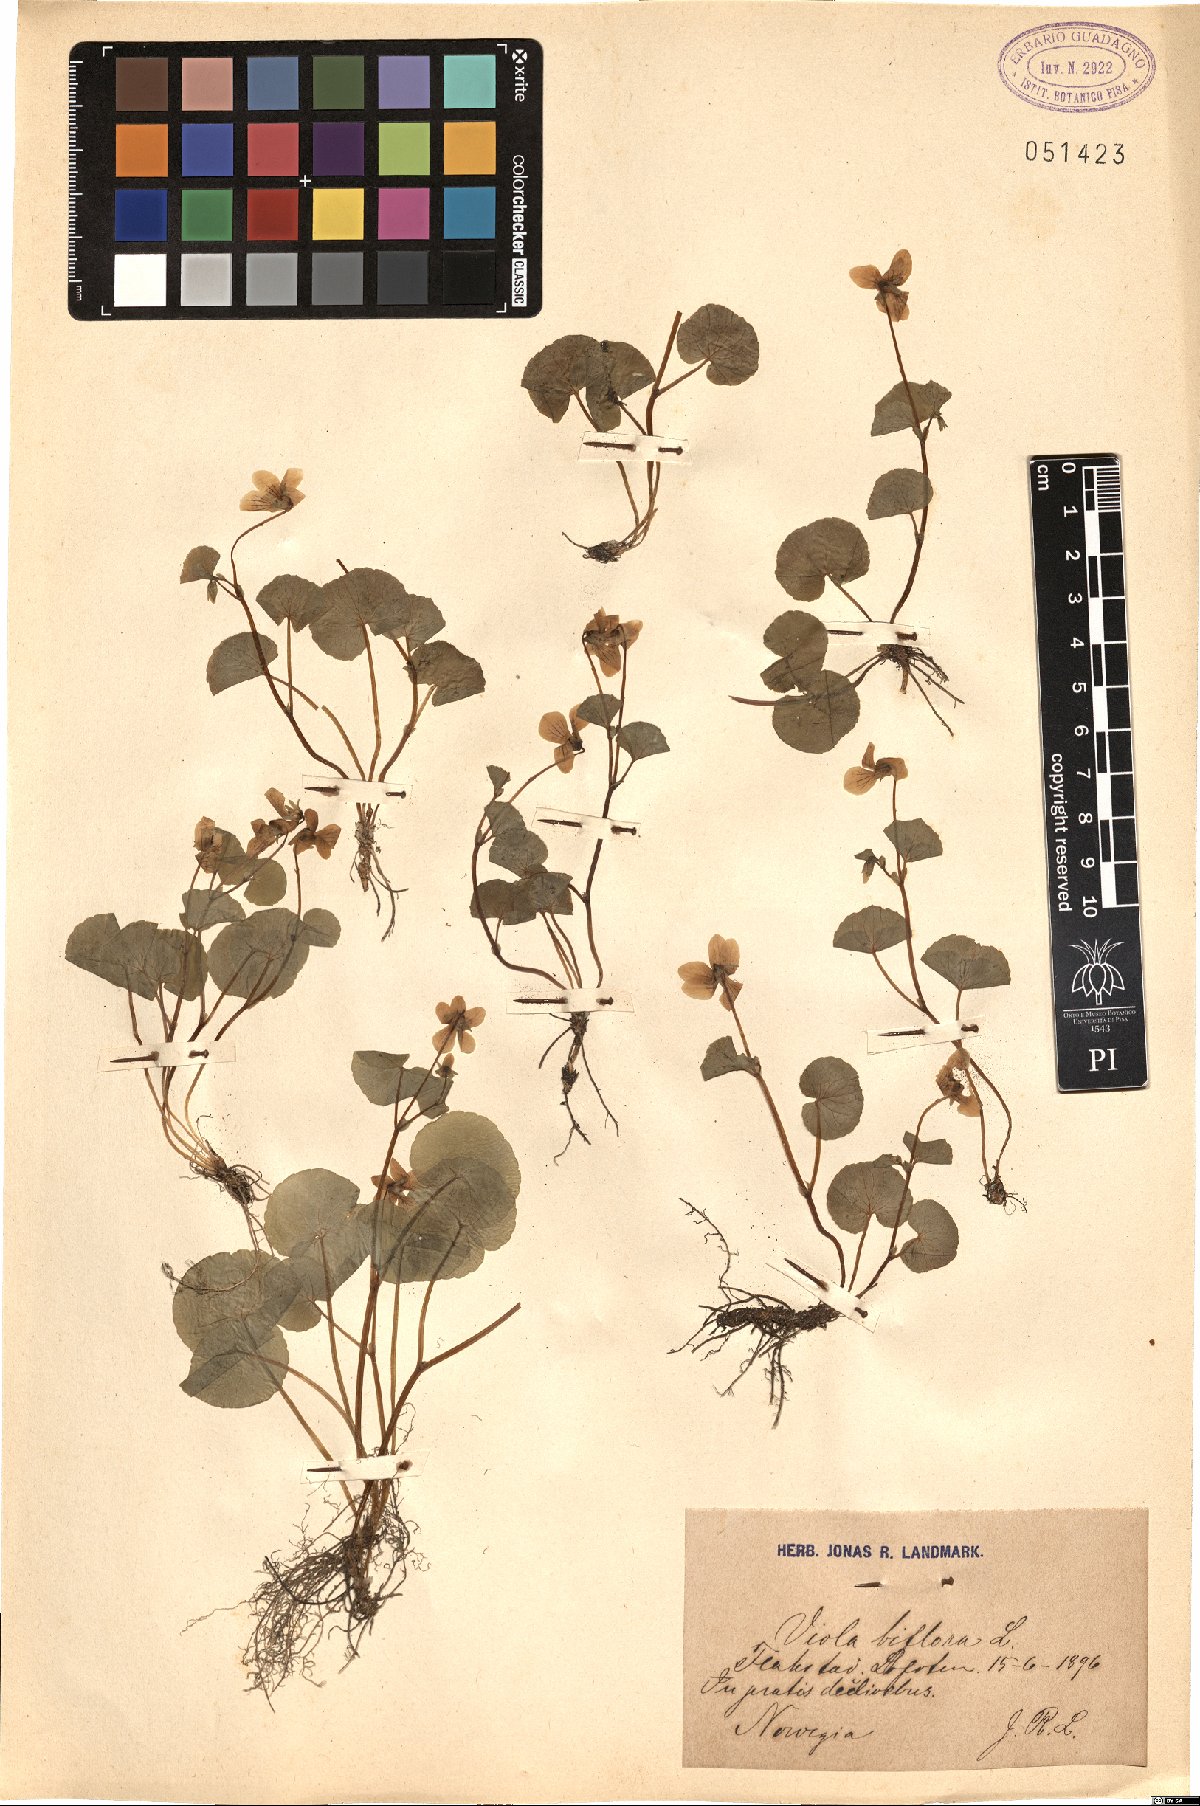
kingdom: Plantae
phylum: Tracheophyta
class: Magnoliopsida
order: Malpighiales
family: Violaceae
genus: Viola
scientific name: Viola biflora
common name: Alpine yellow violet
